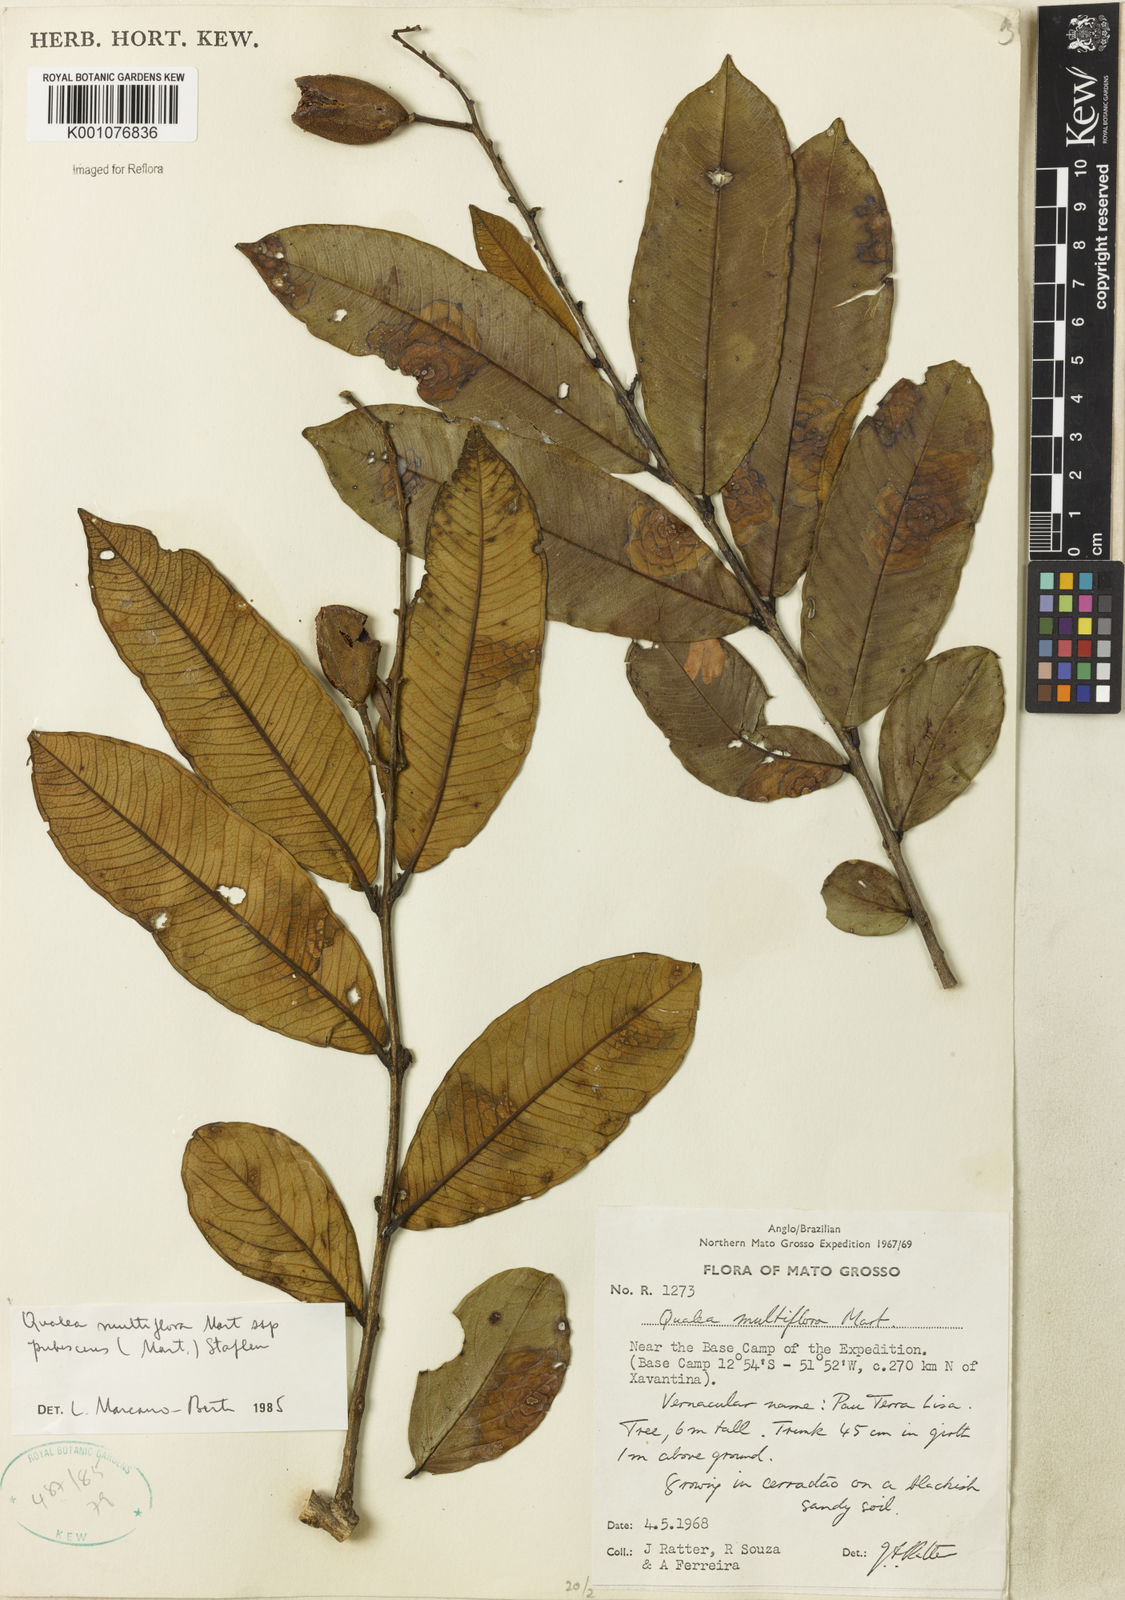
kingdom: Plantae
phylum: Tracheophyta
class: Magnoliopsida
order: Myrtales
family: Vochysiaceae
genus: Qualea
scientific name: Qualea multiflora
